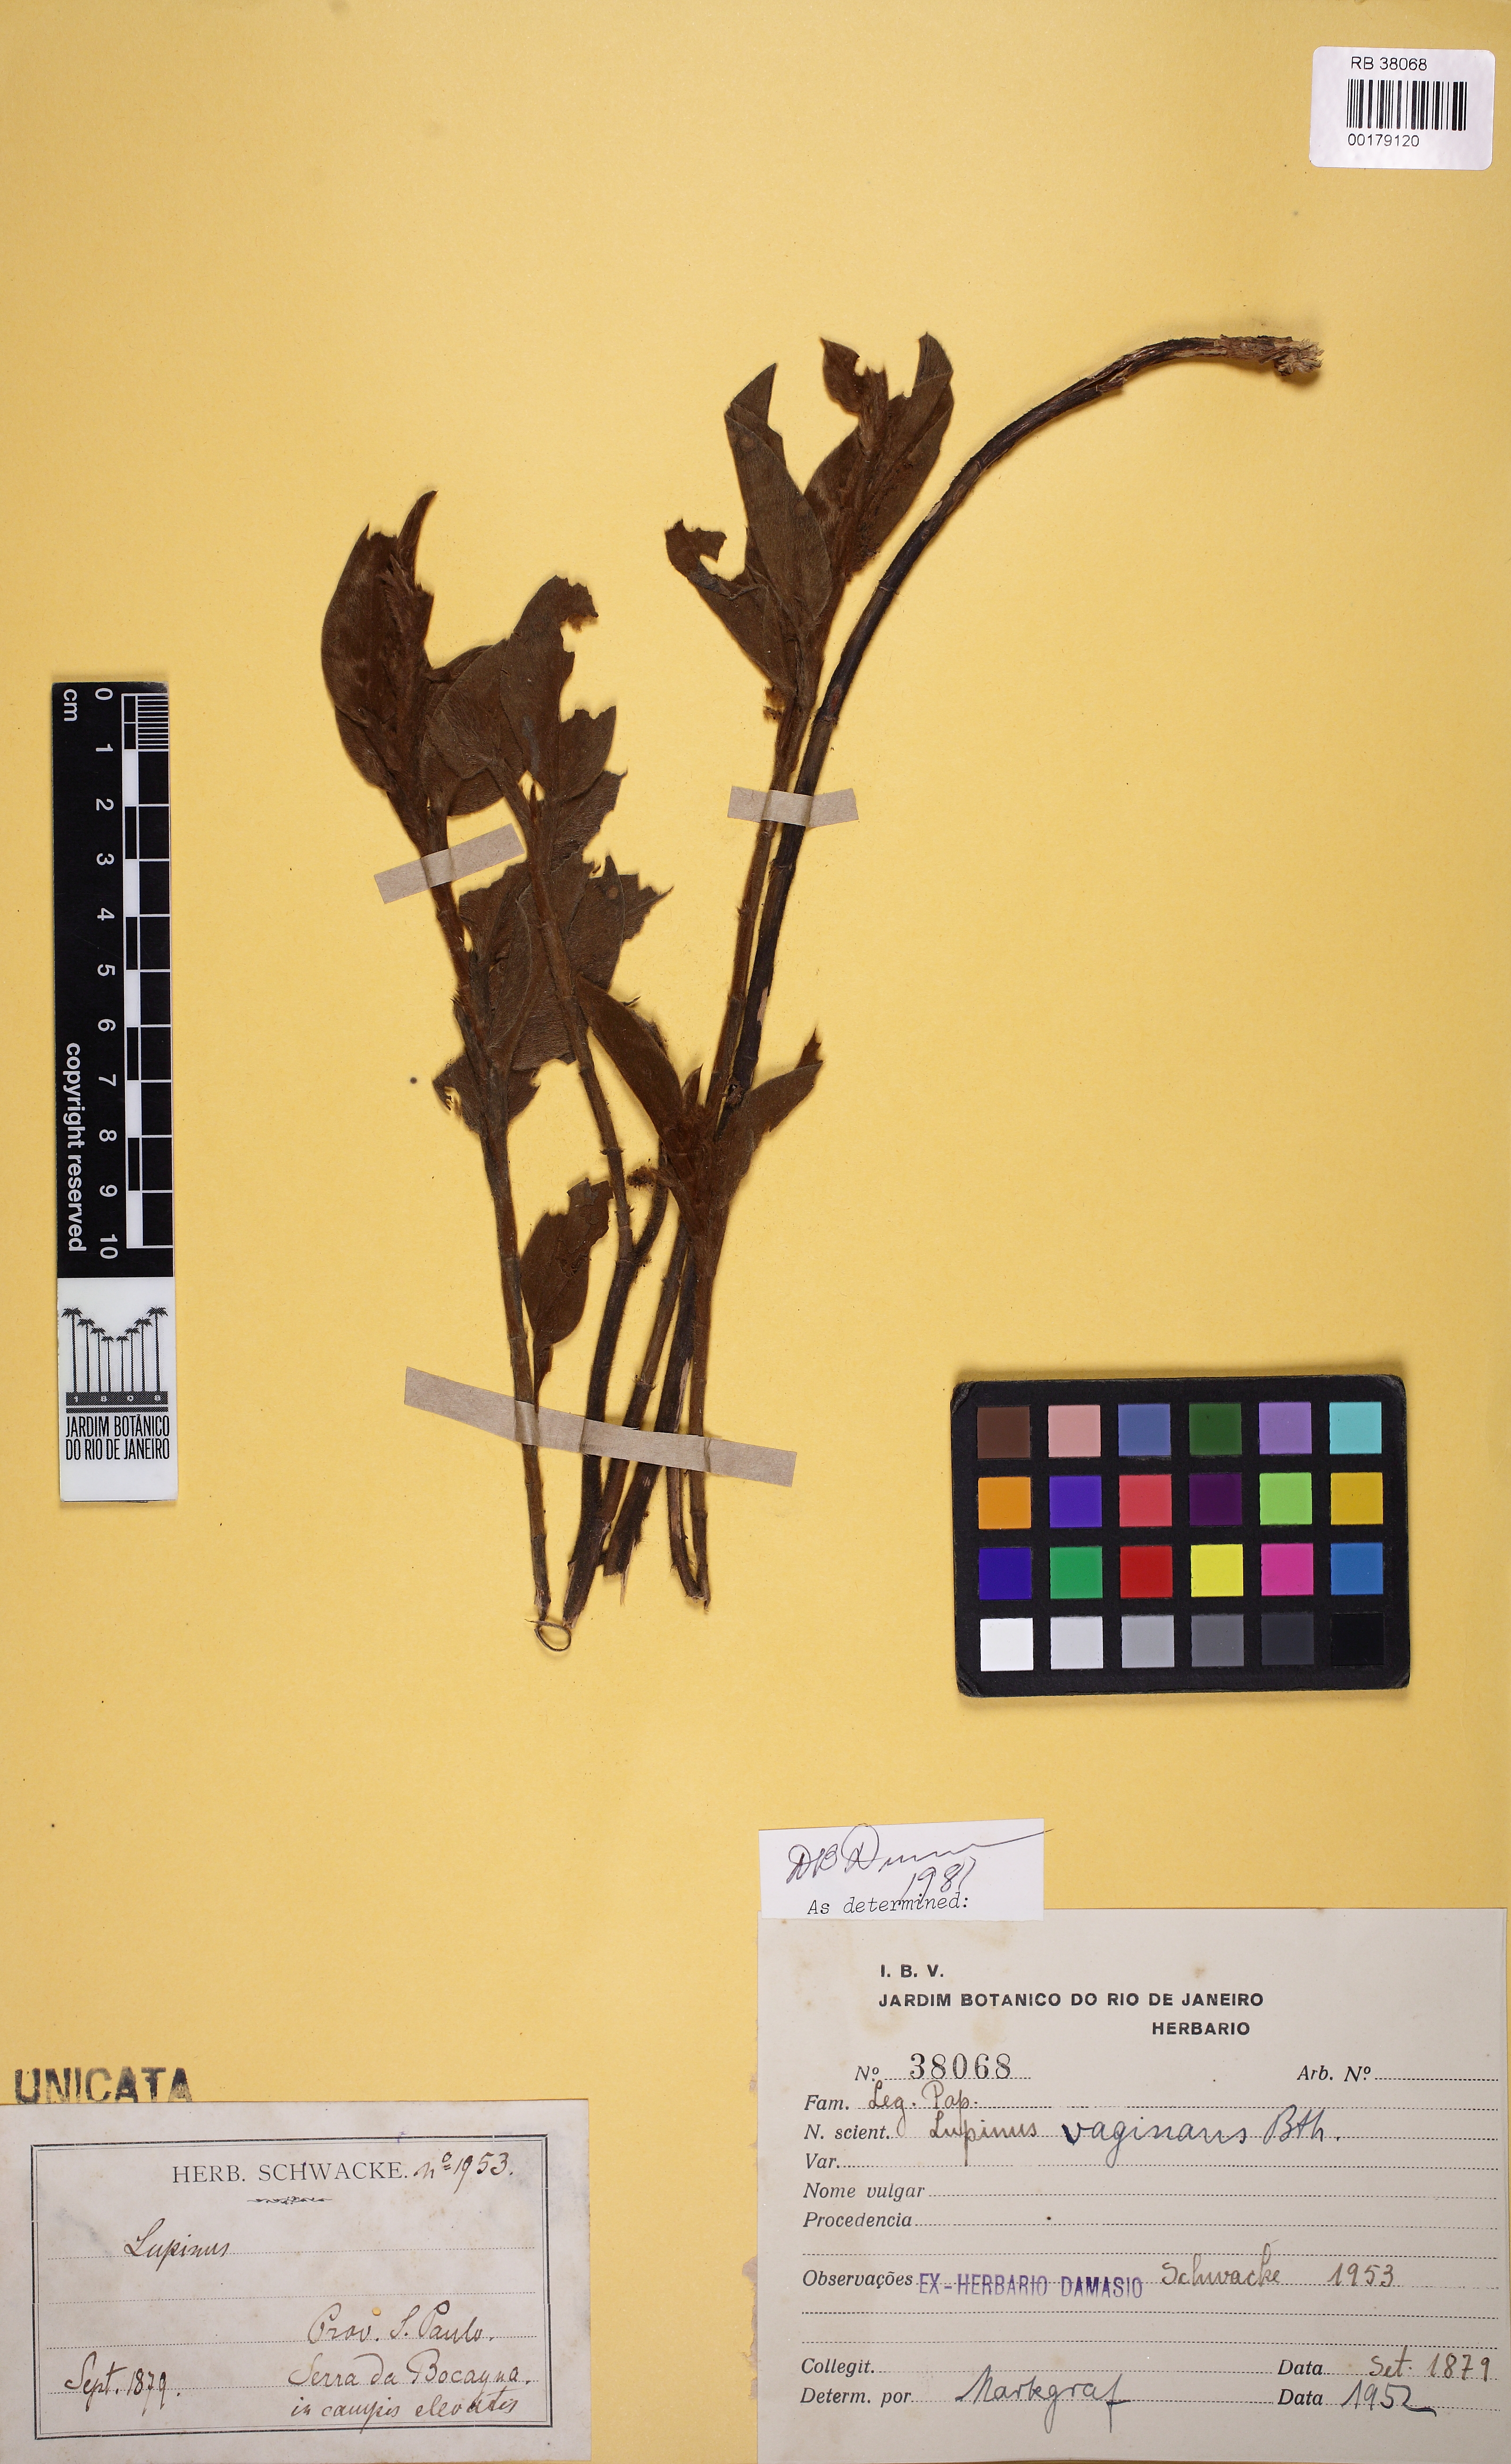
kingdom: Plantae
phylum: Tracheophyta
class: Magnoliopsida
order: Fabales
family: Fabaceae
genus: Lupinus
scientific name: Lupinus velutinus
